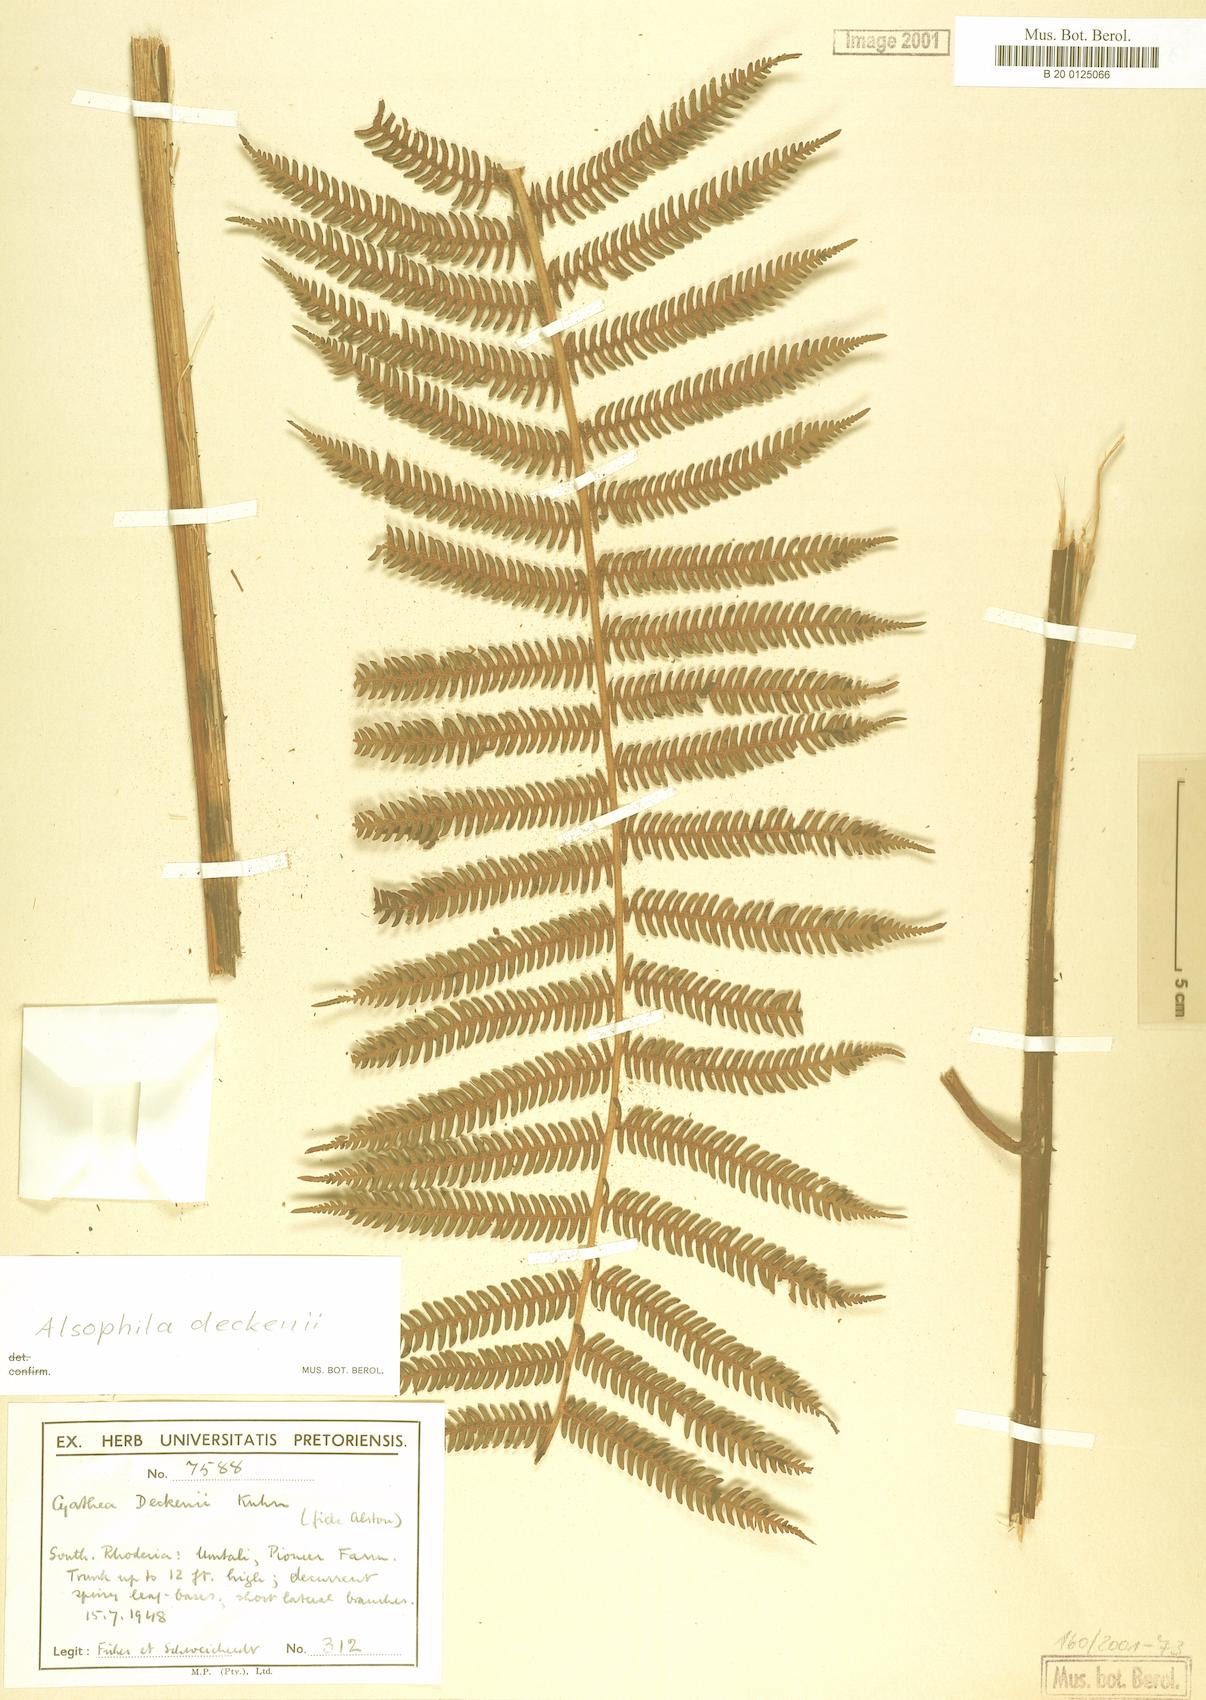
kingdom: Plantae
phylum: Tracheophyta
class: Polypodiopsida
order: Cyatheales
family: Cyatheaceae
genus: Alsophila
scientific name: Alsophila deckenii
